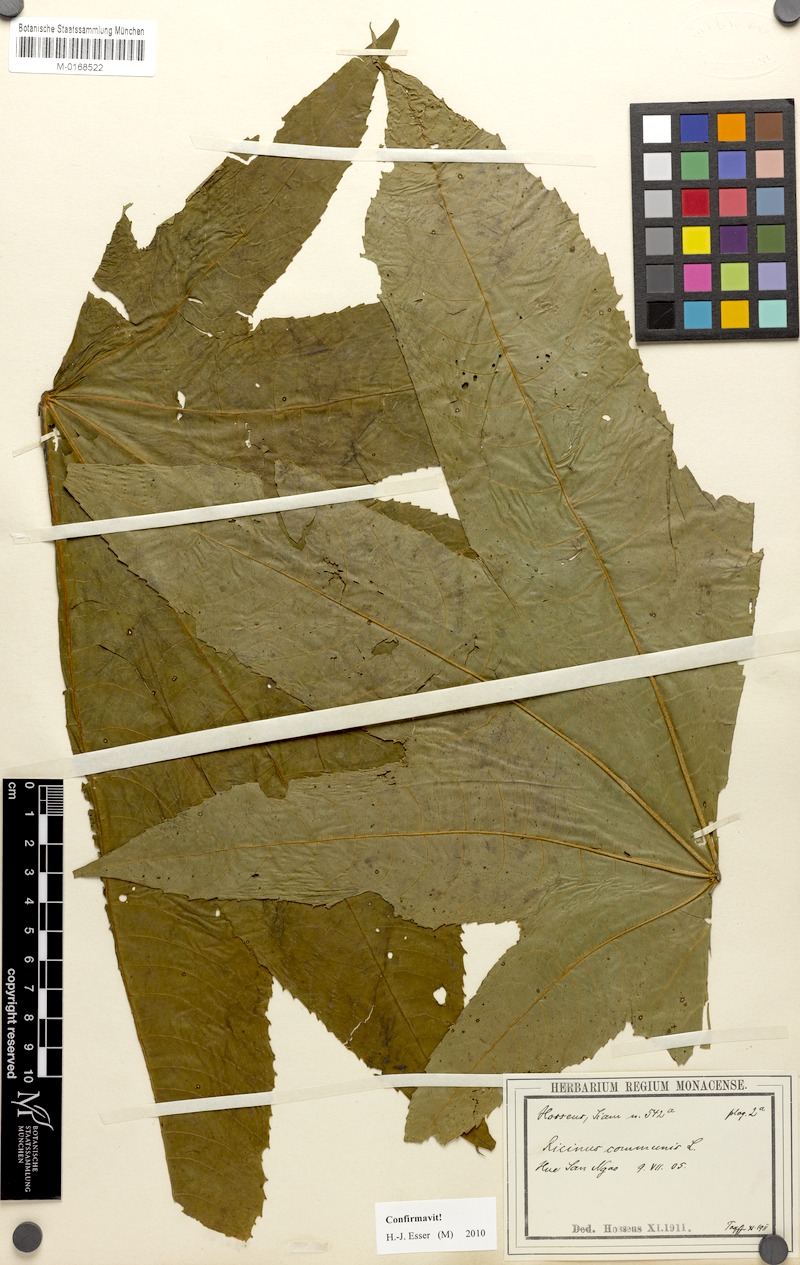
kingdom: Plantae
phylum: Tracheophyta
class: Magnoliopsida
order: Malpighiales
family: Euphorbiaceae
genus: Ricinus
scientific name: Ricinus communis
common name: Castor-oil-plant
